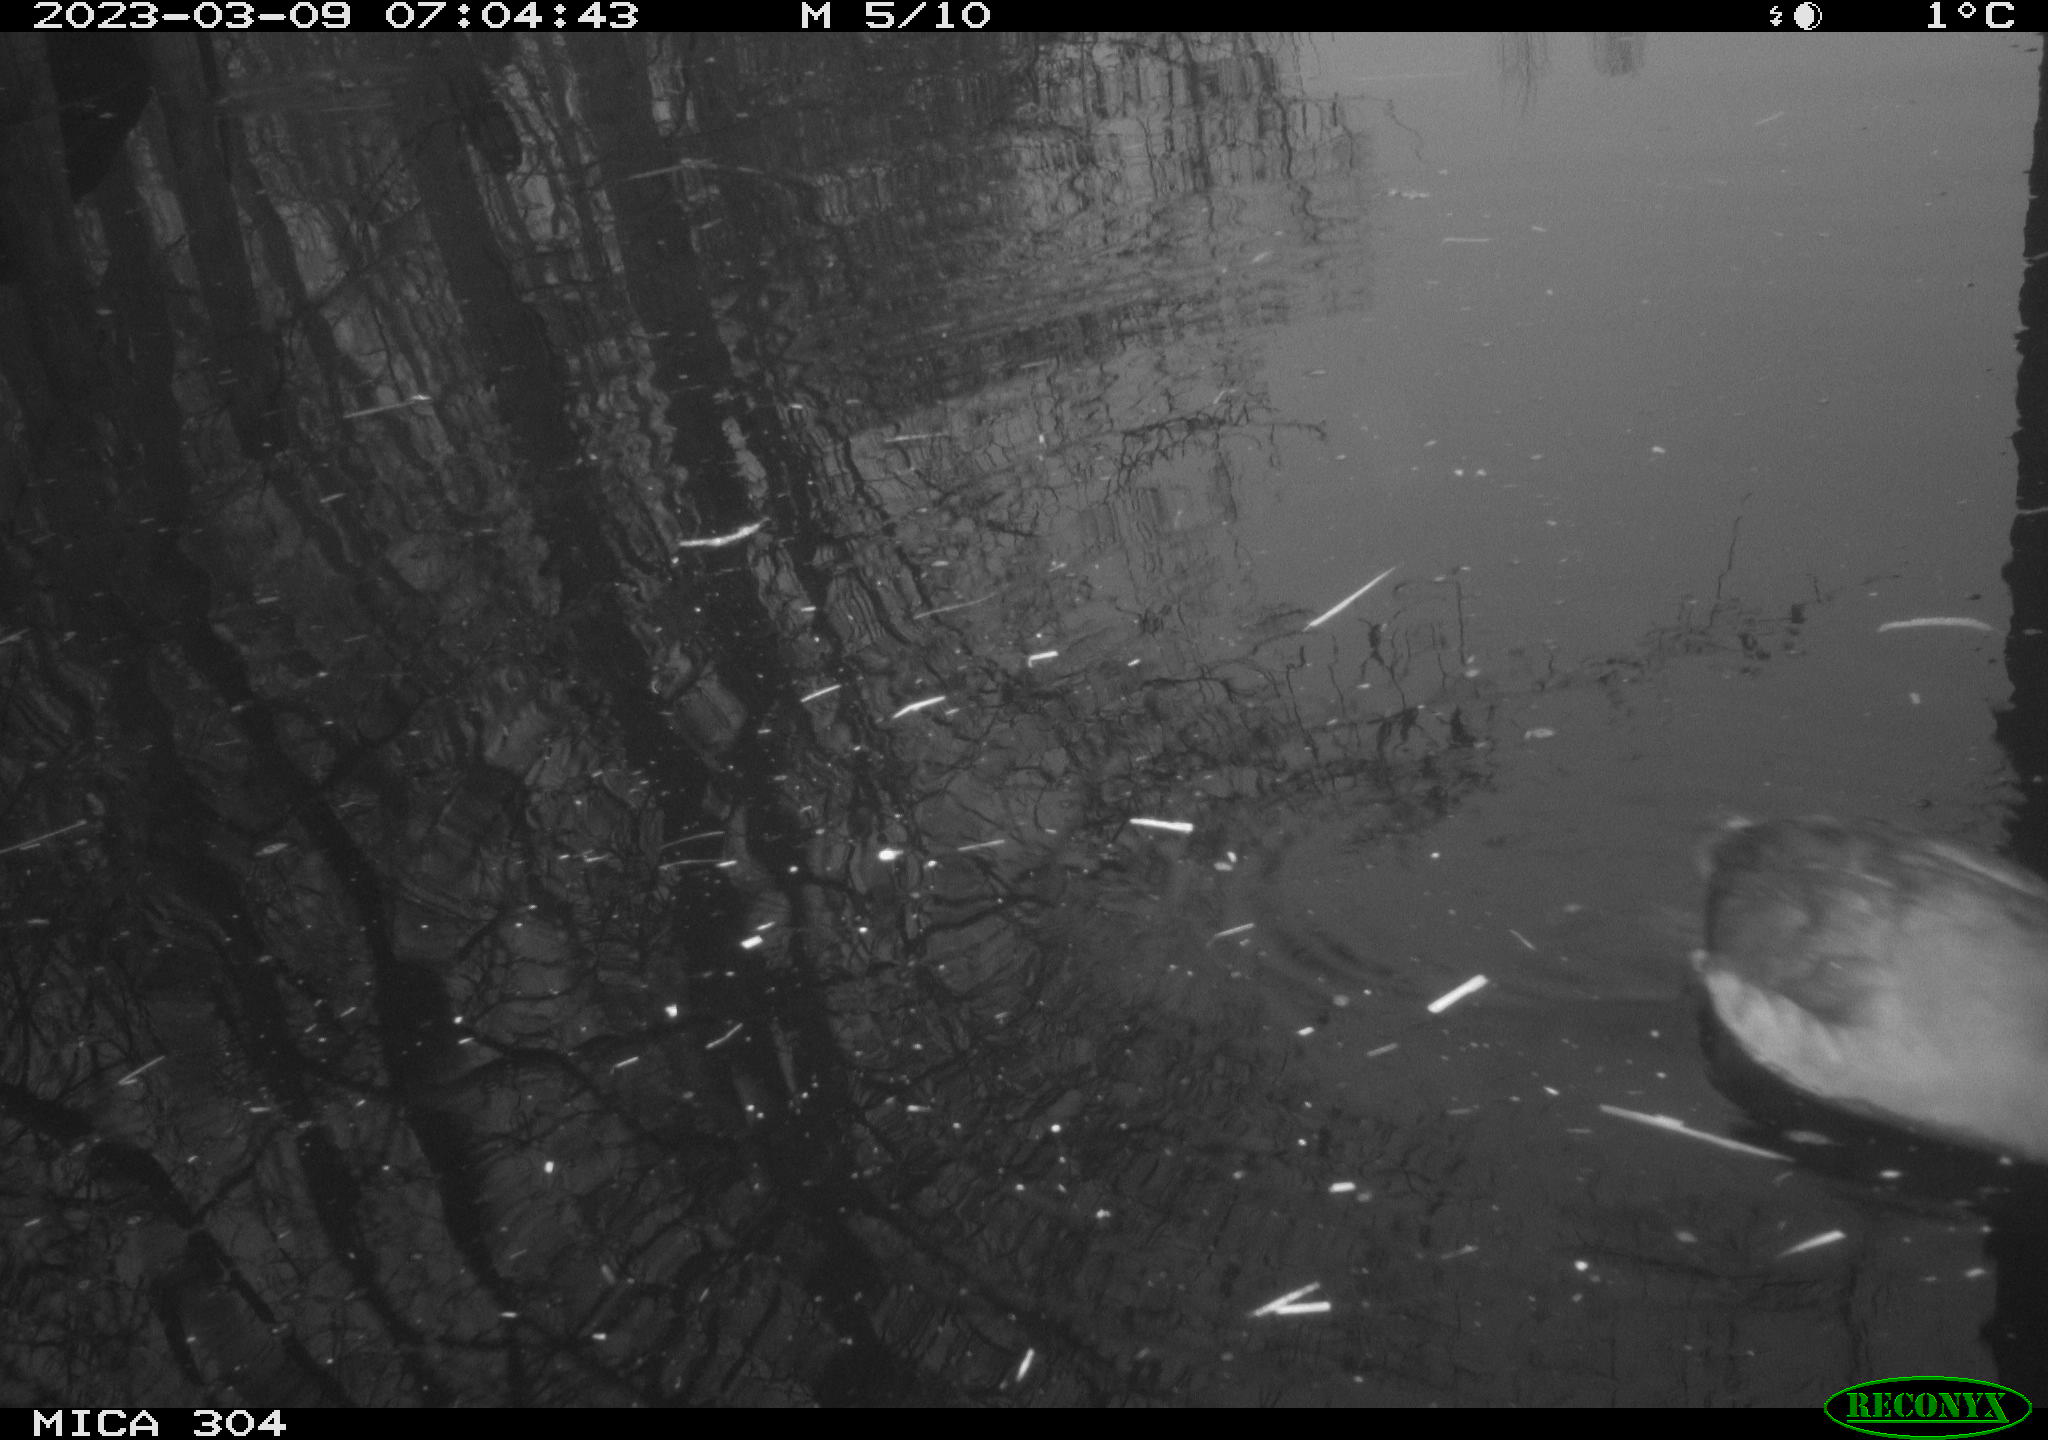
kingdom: Animalia
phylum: Chordata
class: Aves
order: Gruiformes
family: Rallidae
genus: Fulica
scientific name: Fulica atra
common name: Eurasian coot
